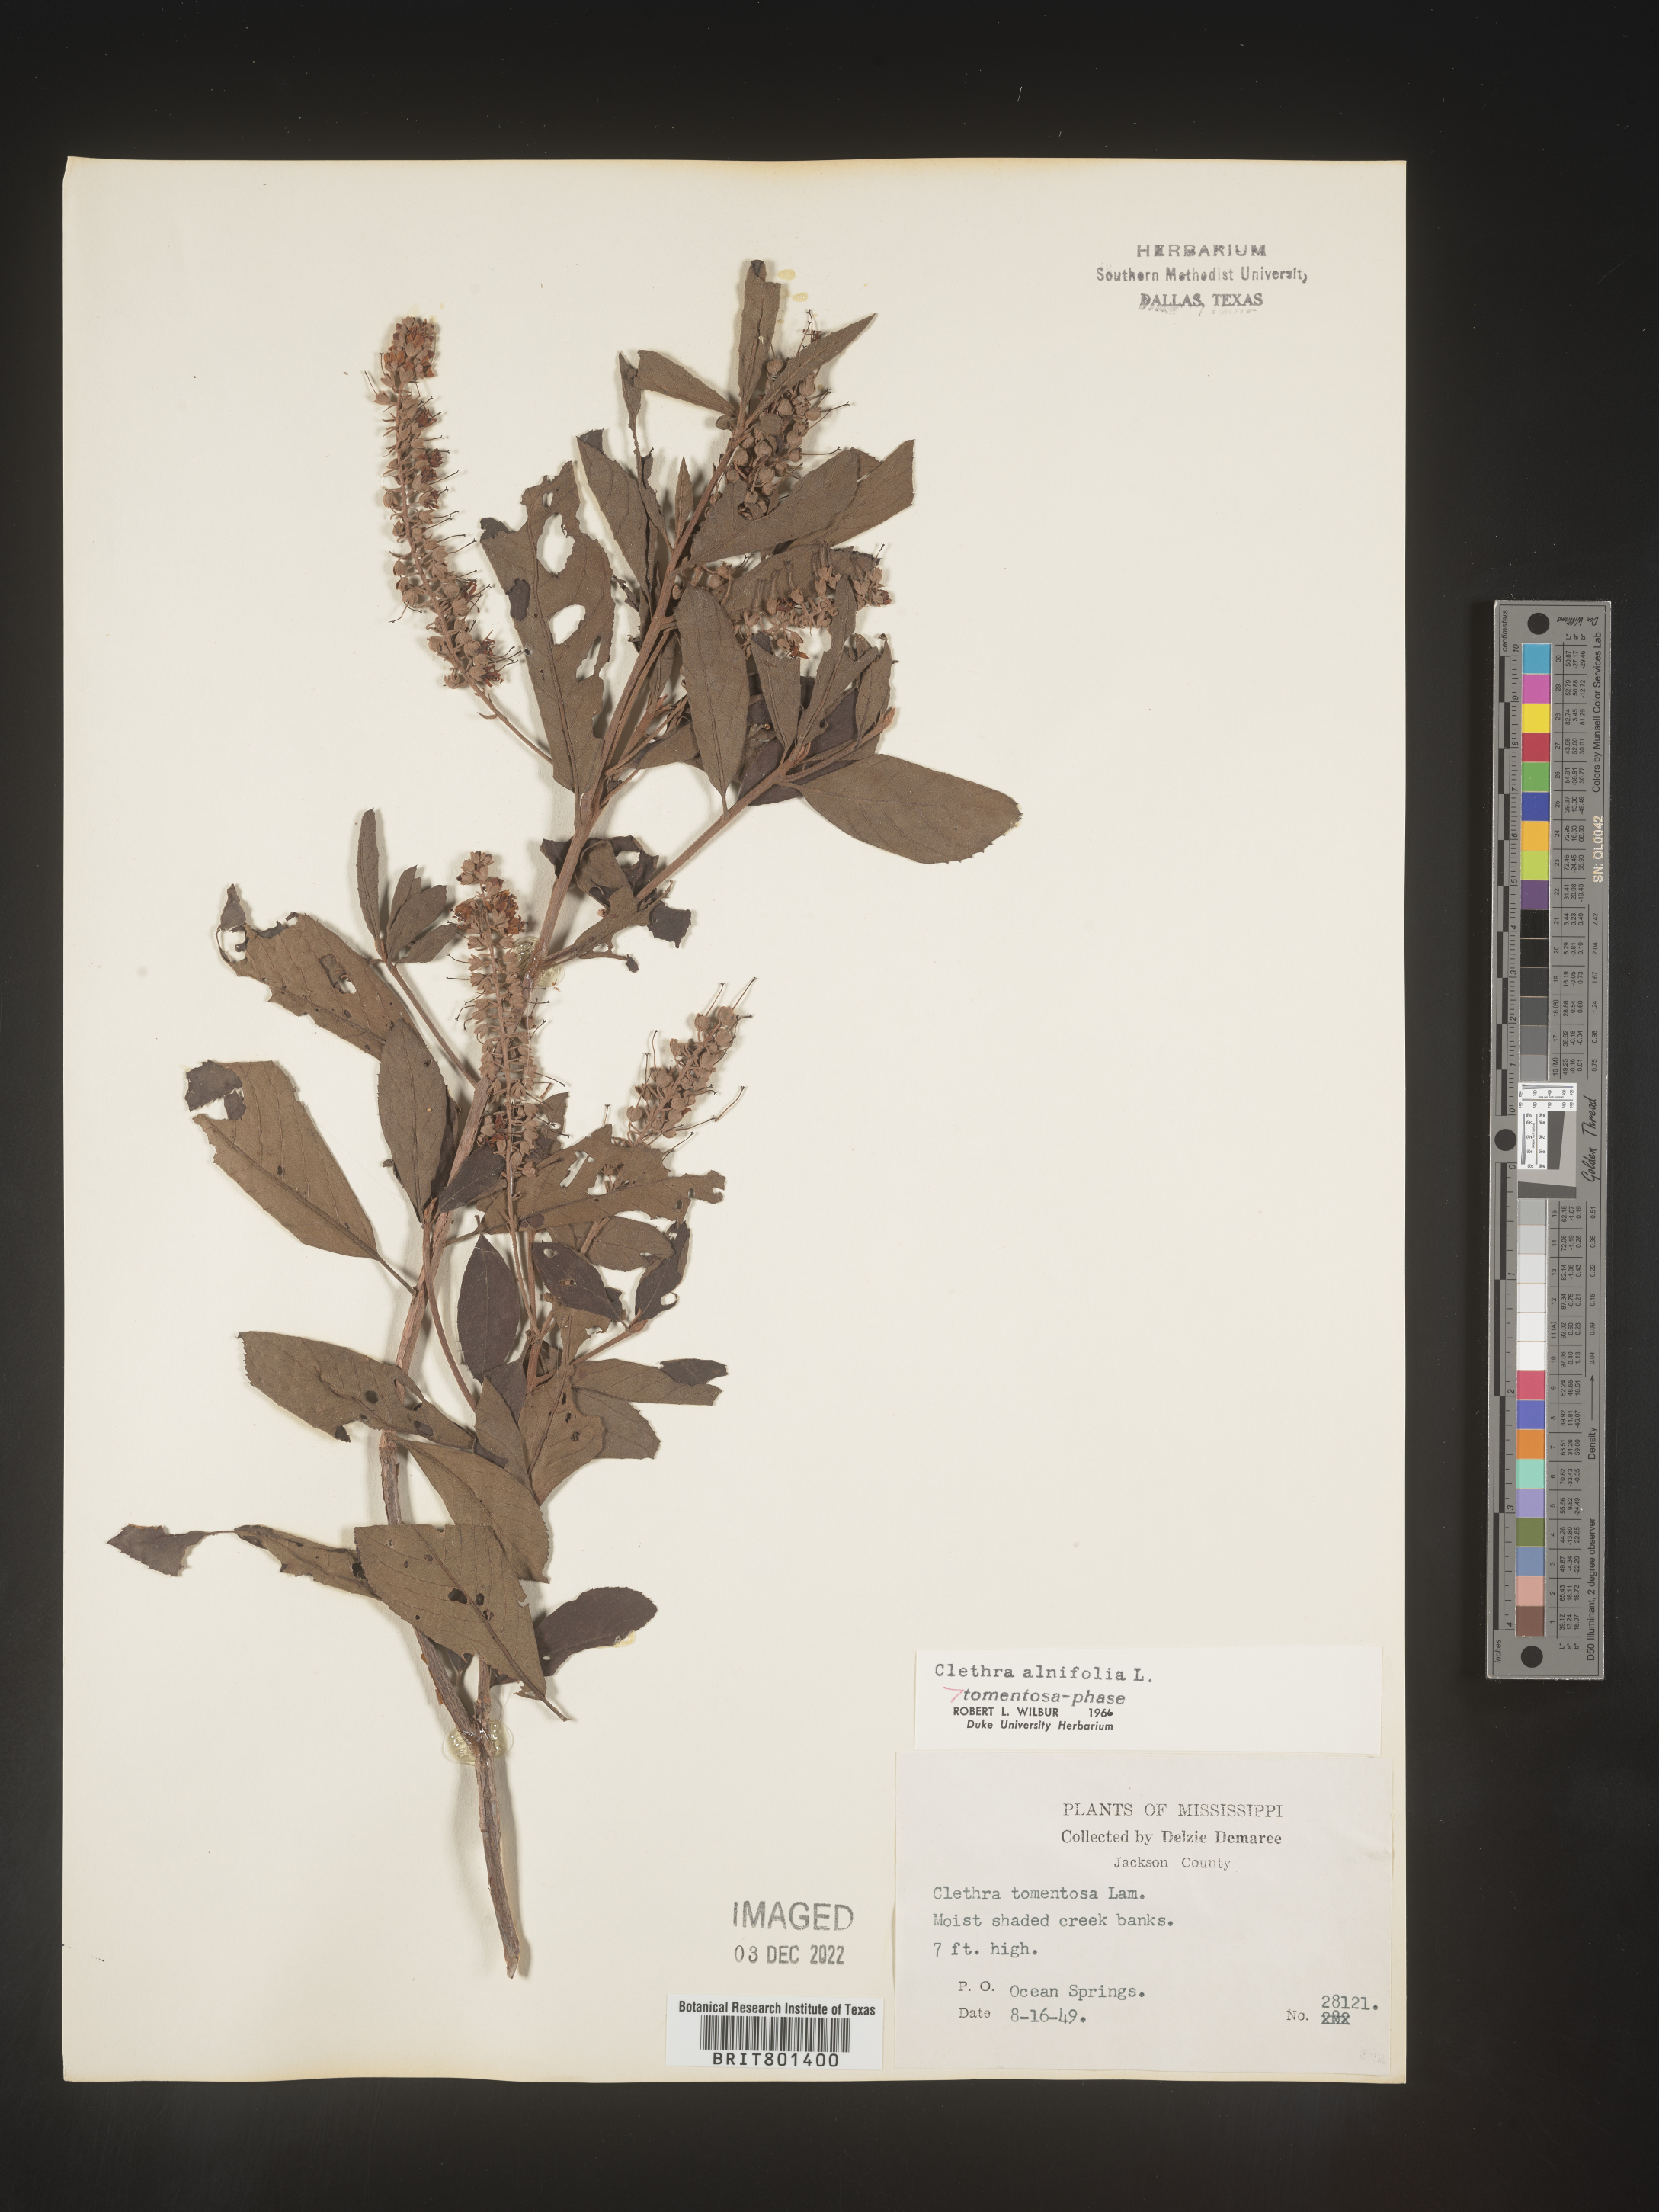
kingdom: Plantae
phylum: Tracheophyta
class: Magnoliopsida
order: Ericales
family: Clethraceae
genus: Clethra
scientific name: Clethra alnifolia
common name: Sweet pepperbush
